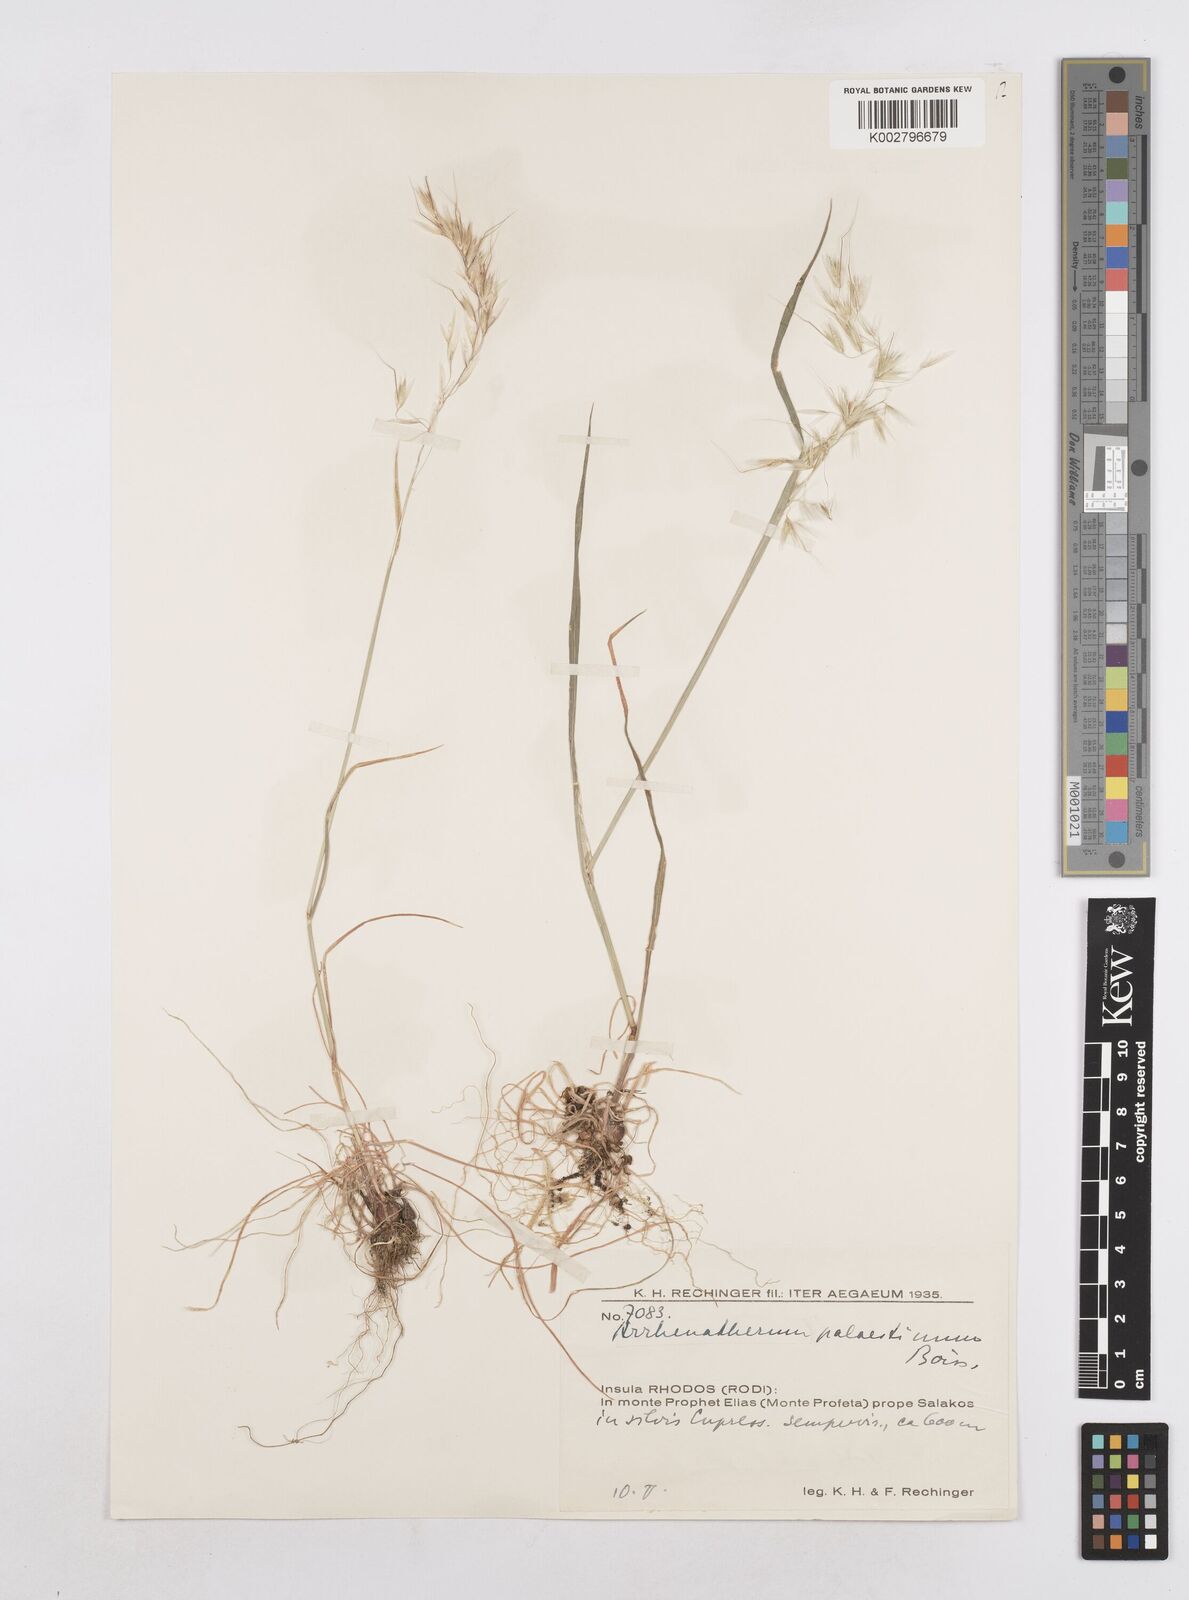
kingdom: Plantae
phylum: Tracheophyta
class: Liliopsida
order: Poales
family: Poaceae
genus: Arrhenatherum
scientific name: Arrhenatherum palaestinum
